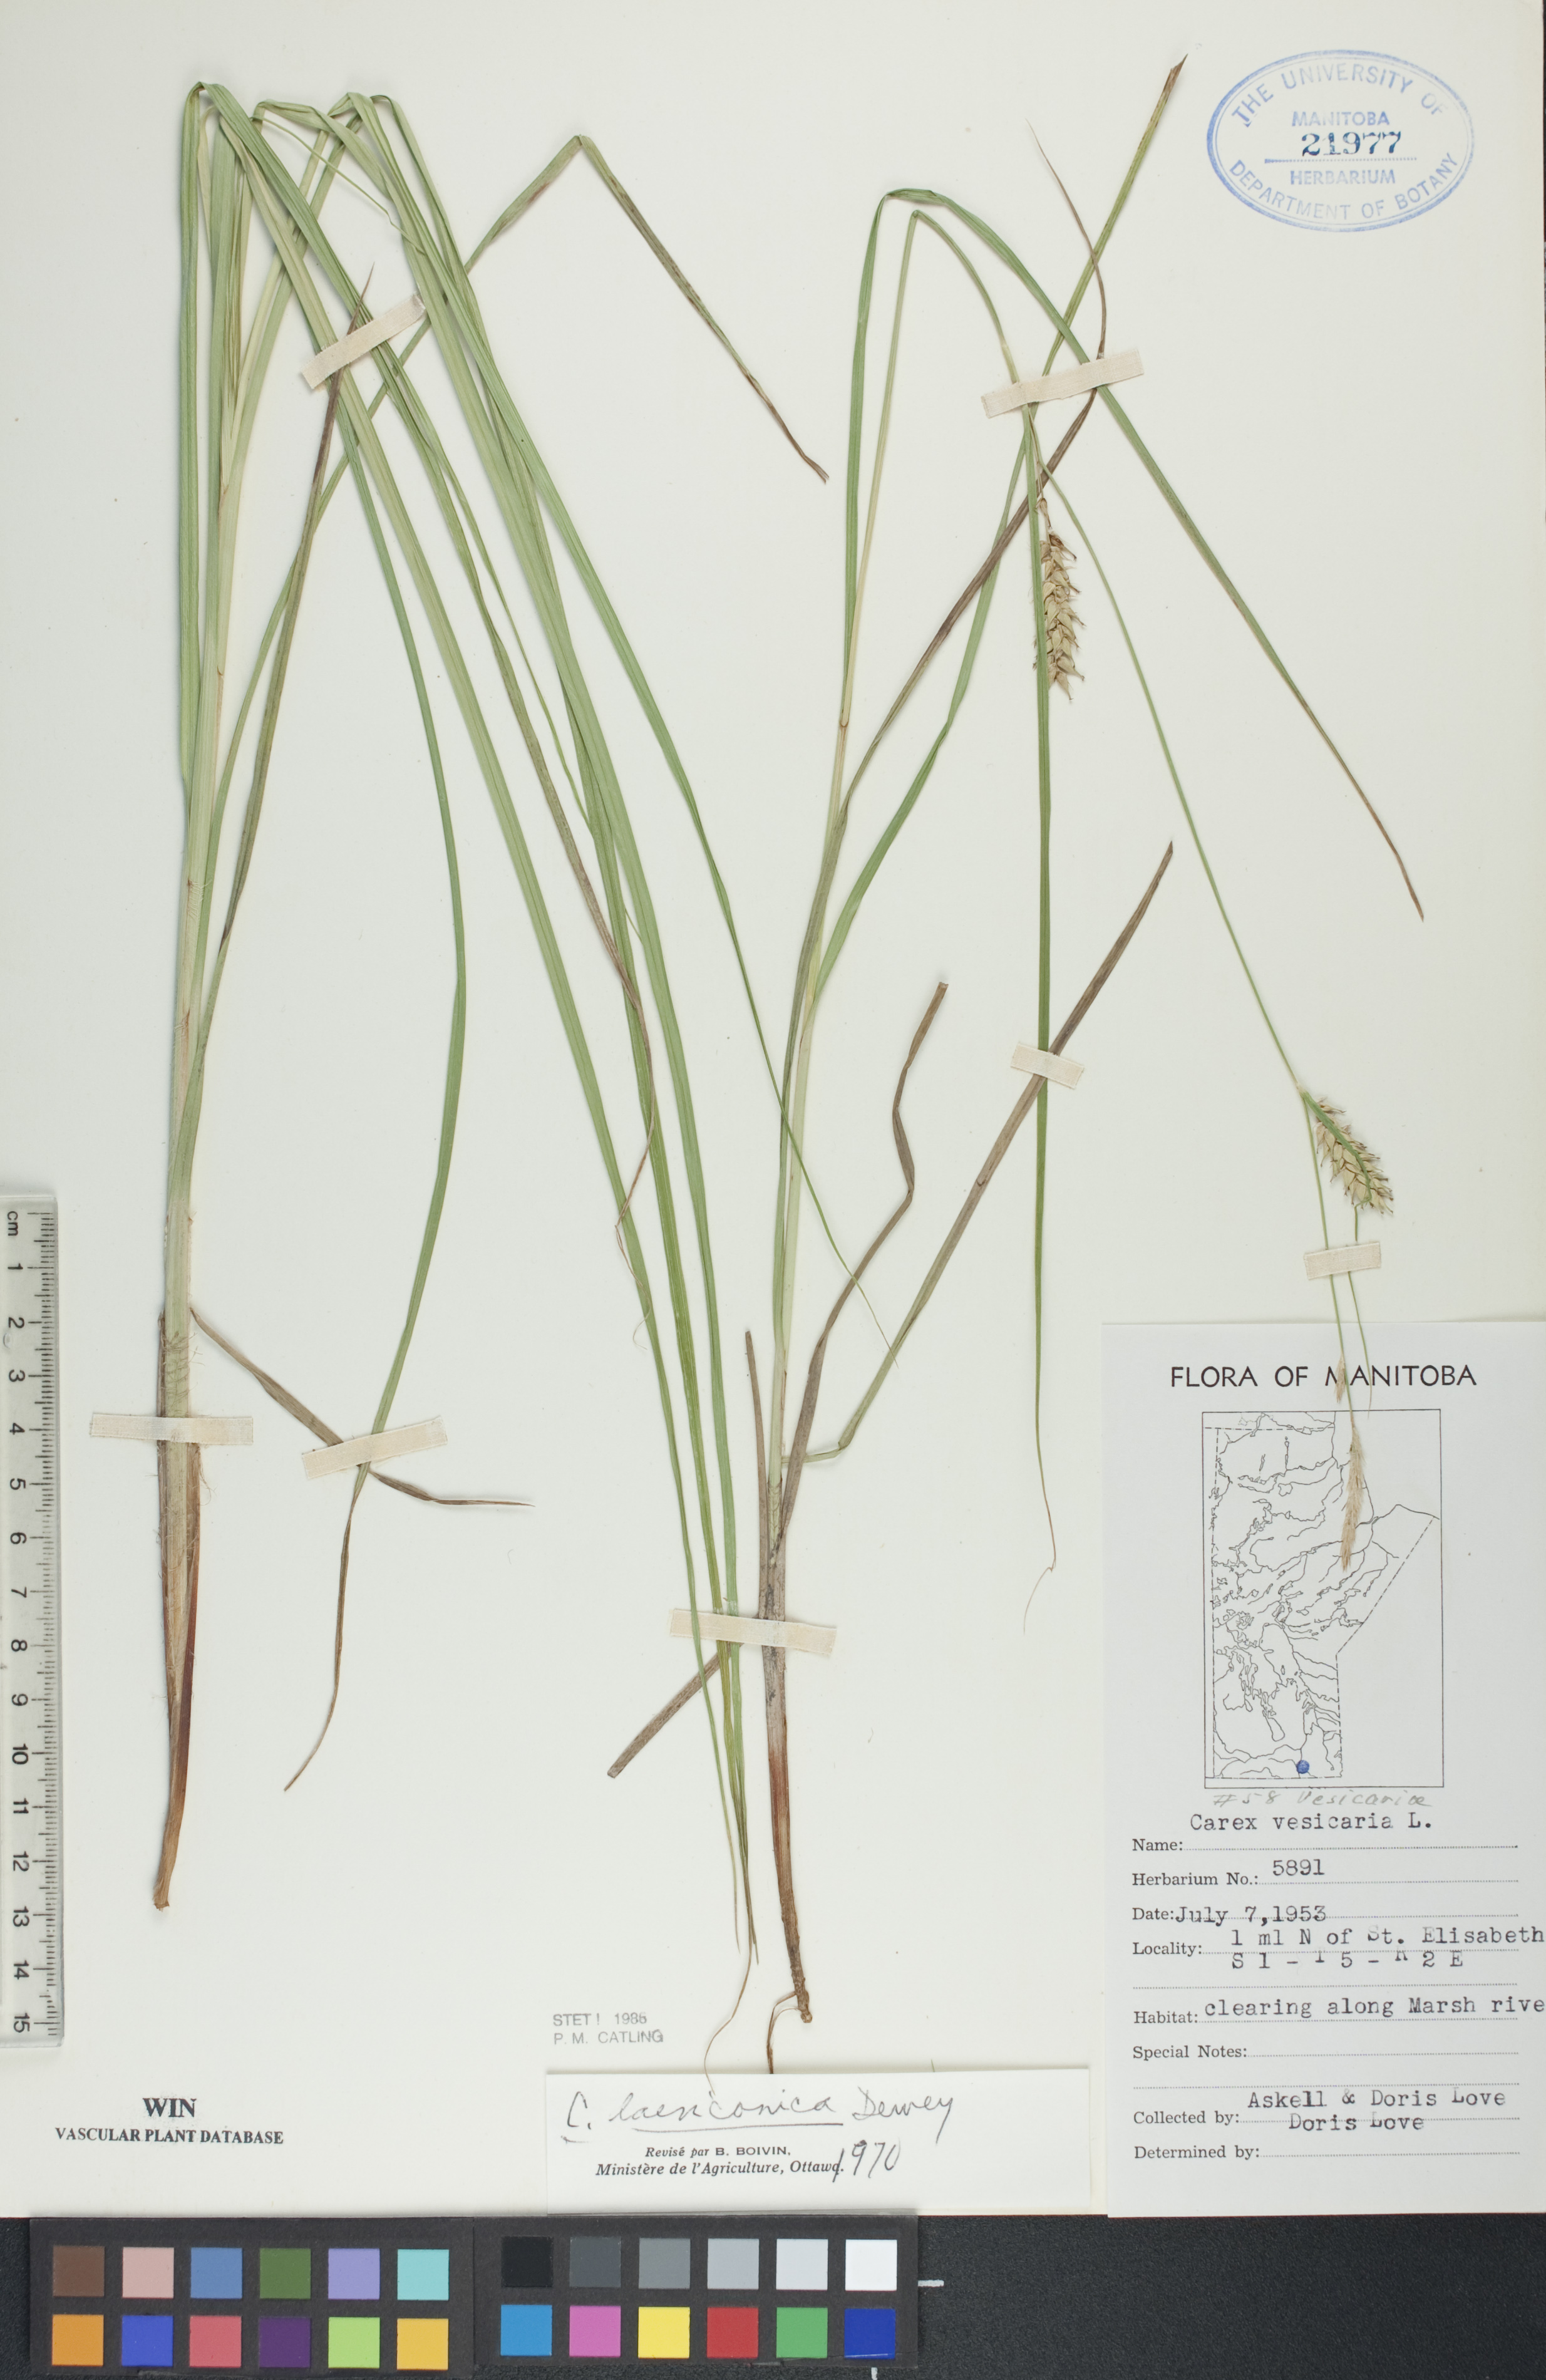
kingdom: Plantae
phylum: Tracheophyta
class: Liliopsida
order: Poales
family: Cyperaceae
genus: Carex
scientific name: Carex laeviconica
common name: Plains slough sedge
